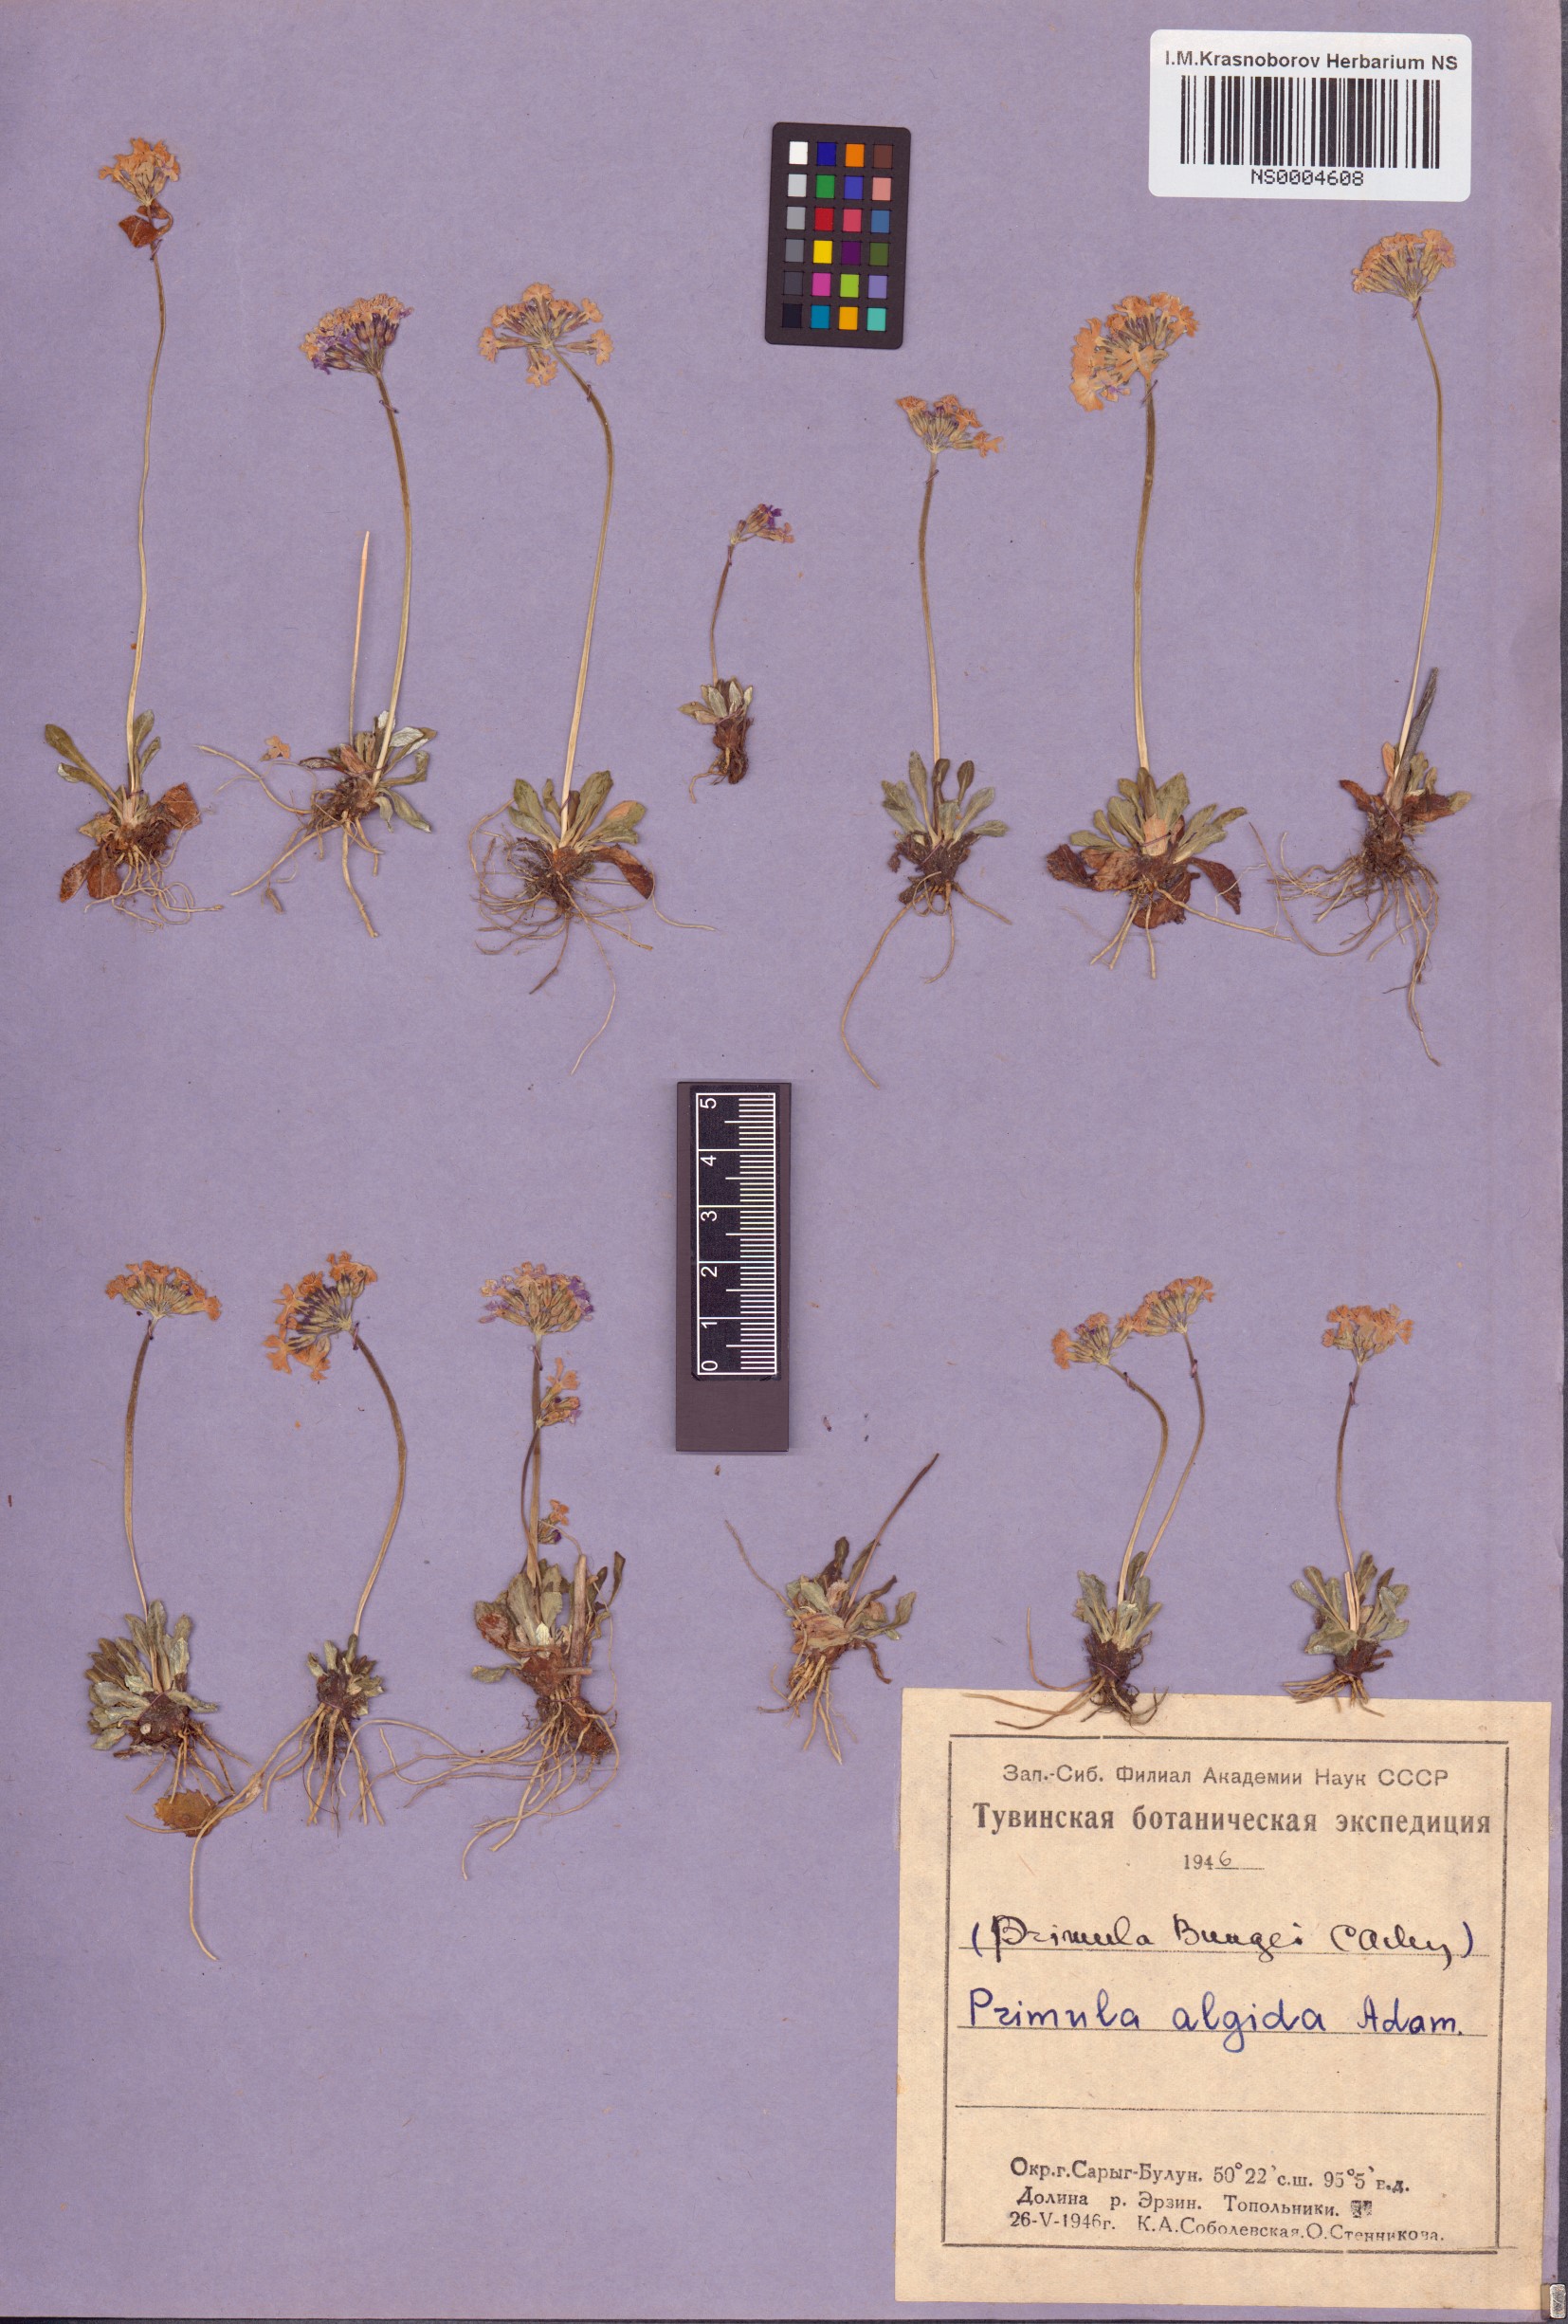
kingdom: Plantae
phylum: Tracheophyta
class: Magnoliopsida
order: Ericales
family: Primulaceae
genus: Primula
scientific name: Primula algida
